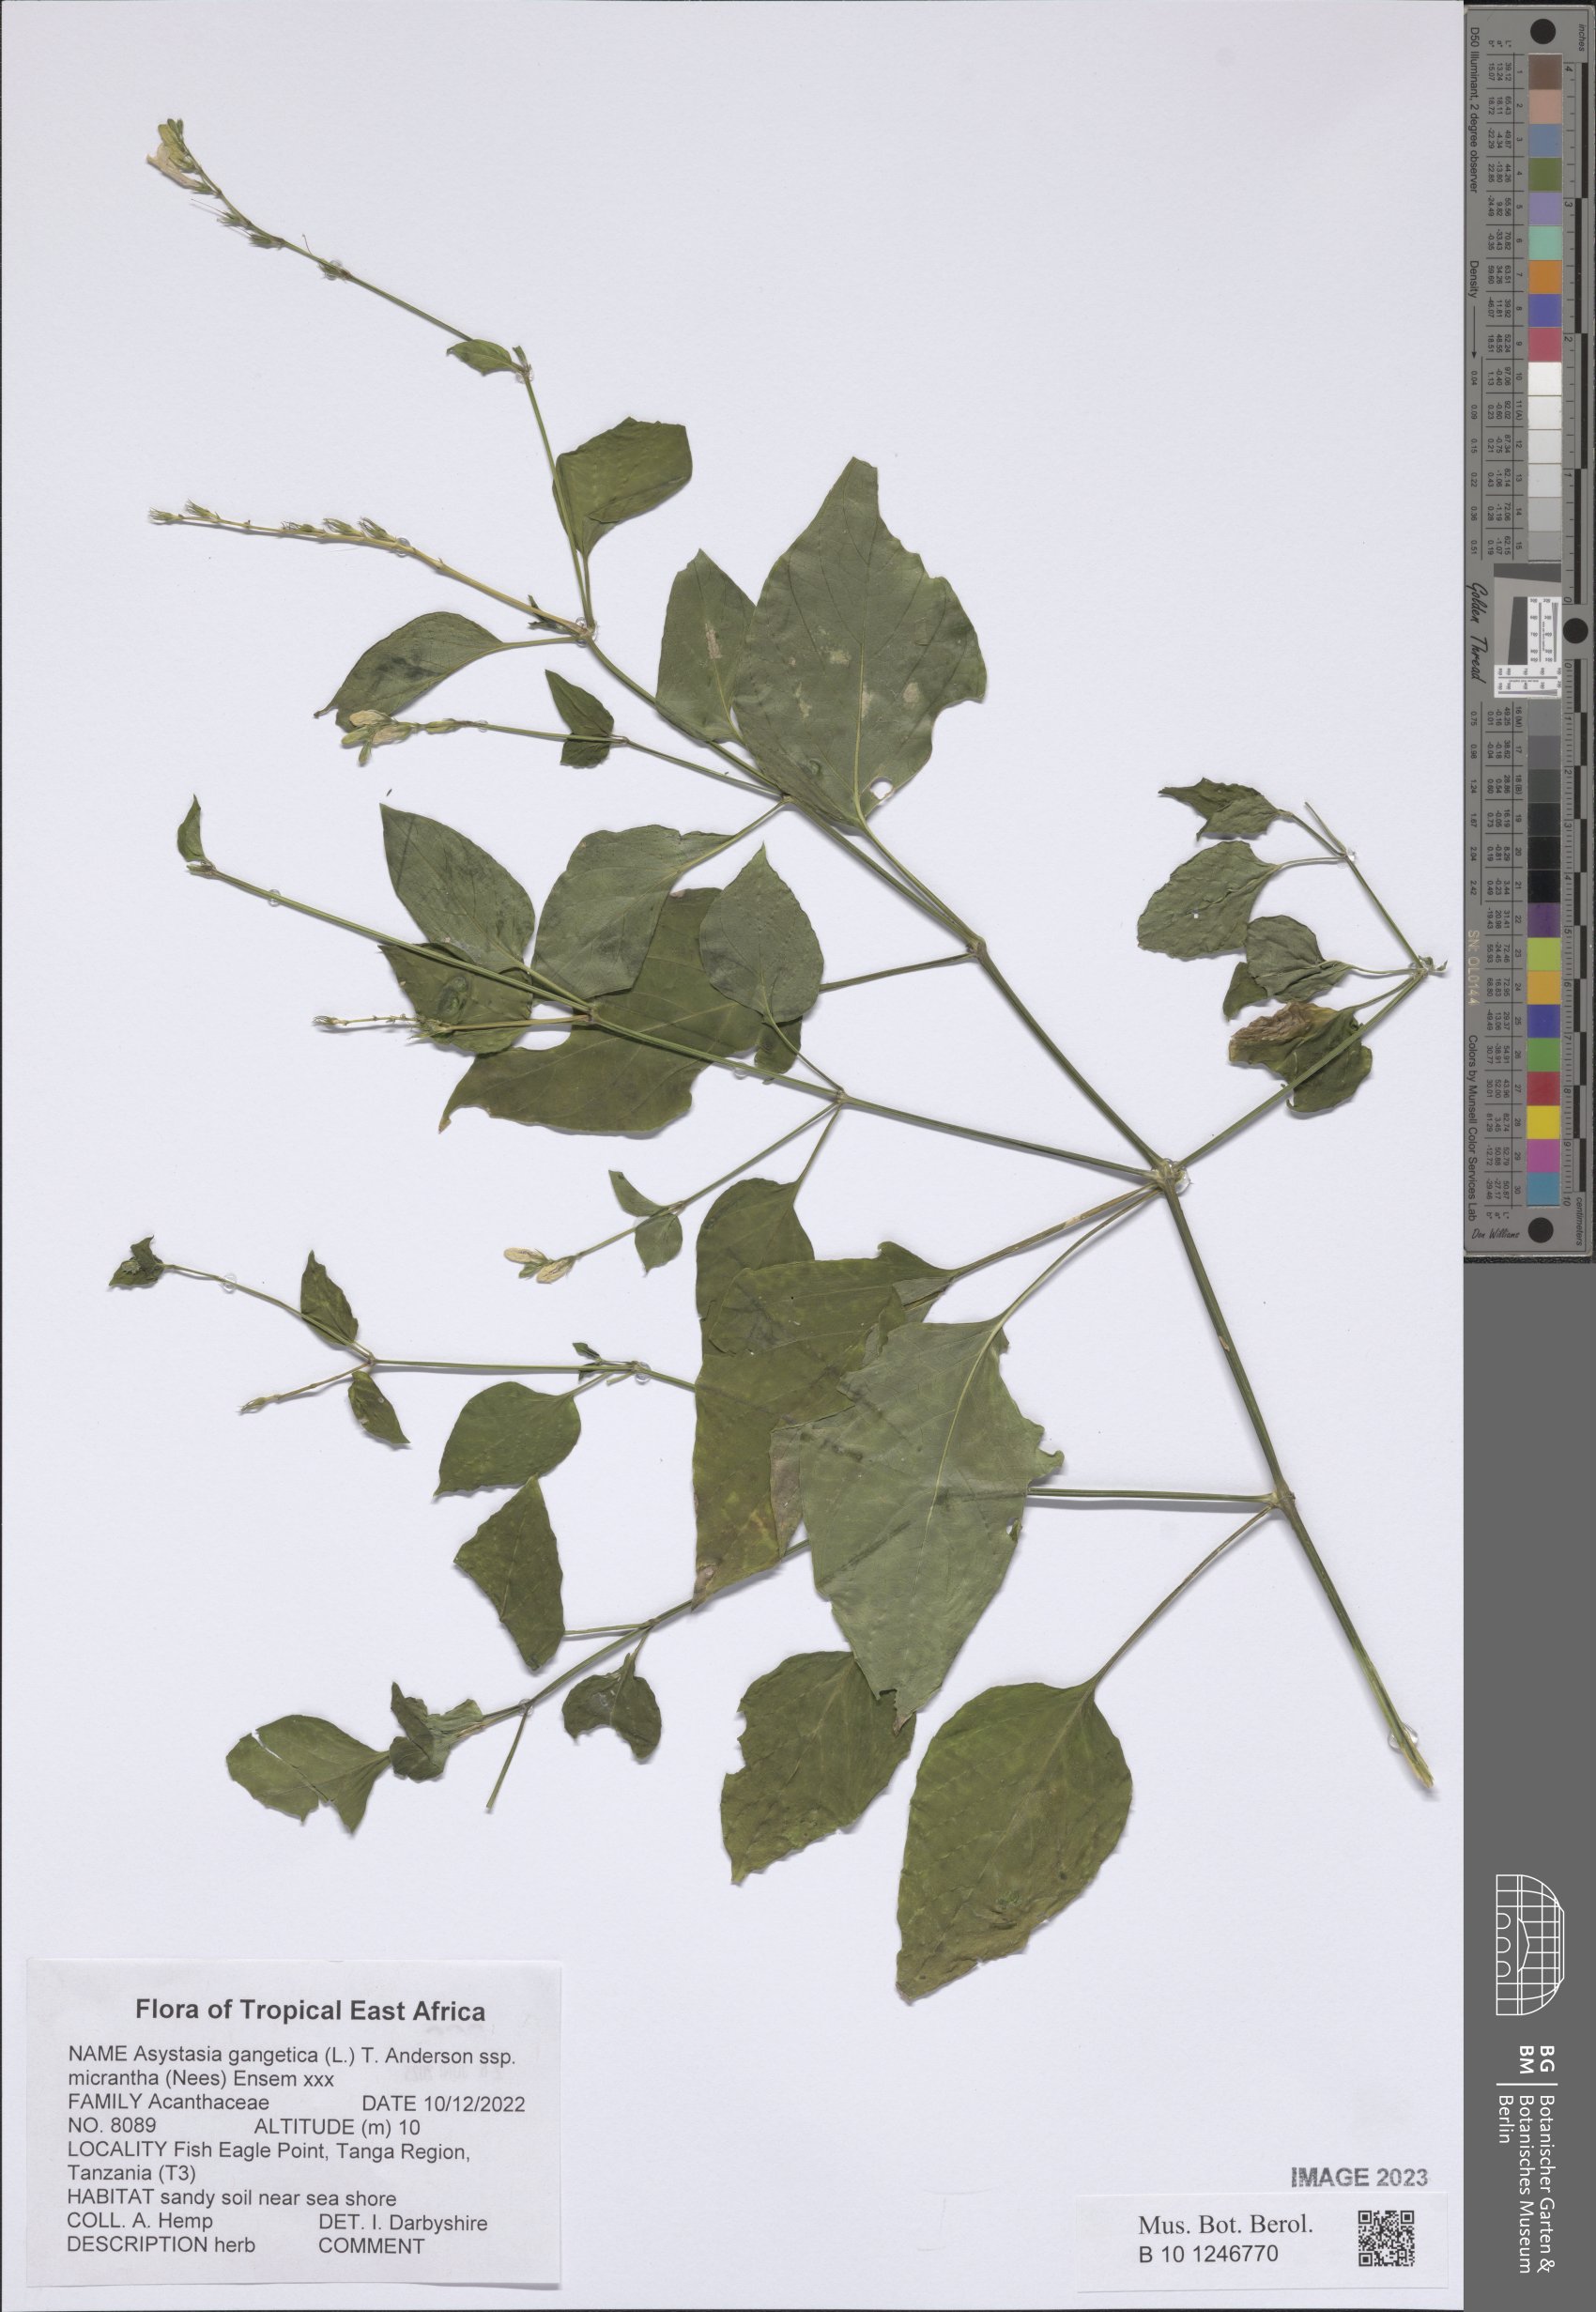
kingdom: Plantae
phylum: Tracheophyta
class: Magnoliopsida
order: Lamiales
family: Acanthaceae
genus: Asystasia
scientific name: Asystasia intrusa
